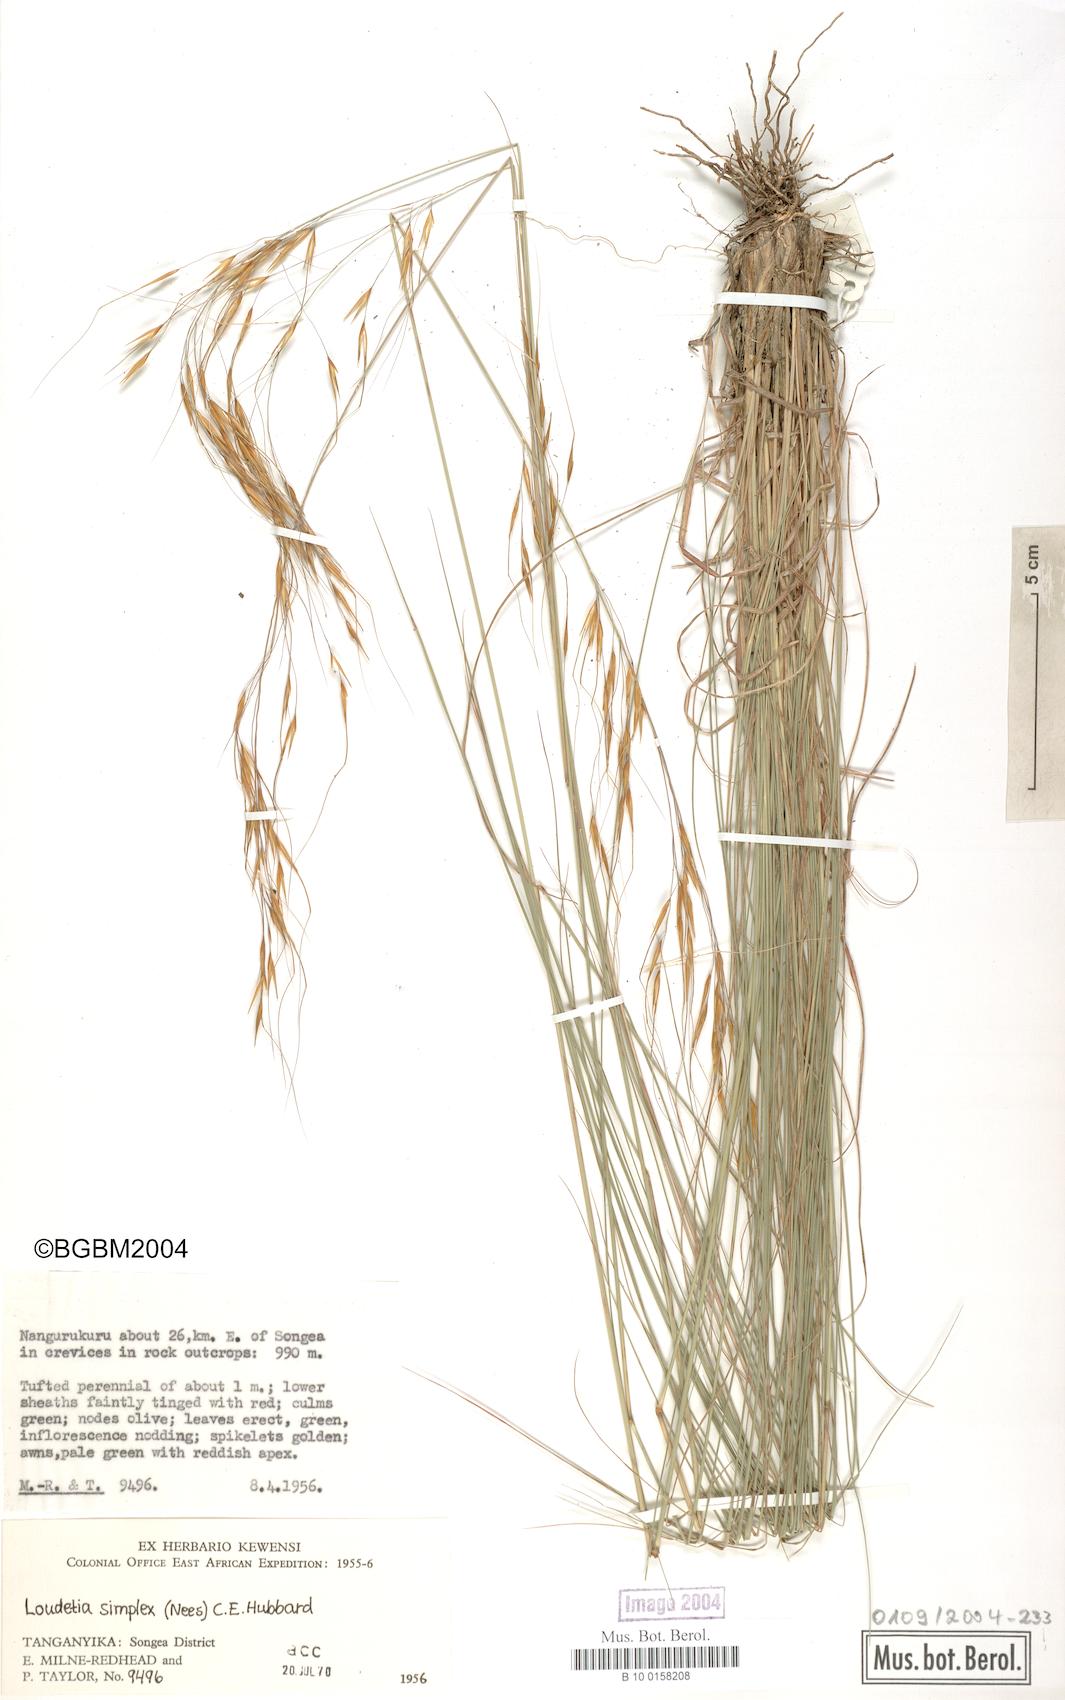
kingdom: Plantae
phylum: Tracheophyta
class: Liliopsida
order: Poales
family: Poaceae
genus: Loudetia
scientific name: Loudetia simplex
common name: Common russet grass
